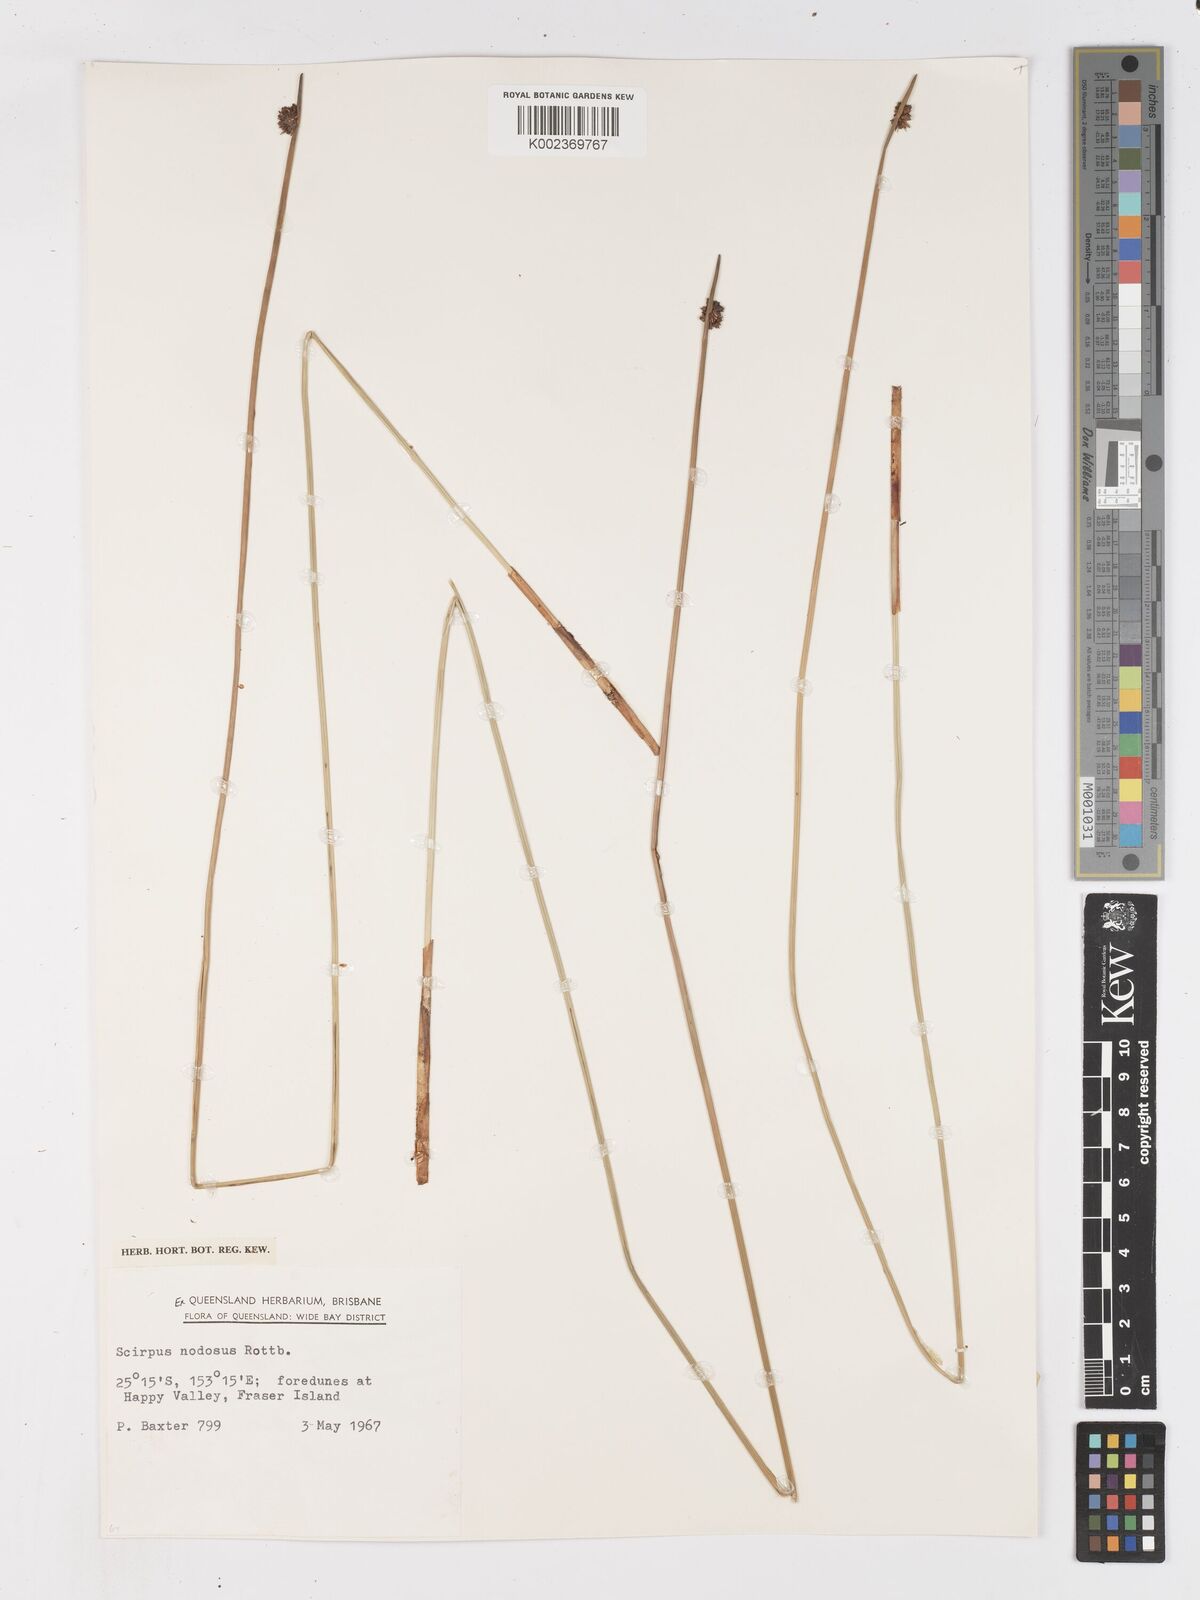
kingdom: Plantae
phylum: Tracheophyta
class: Liliopsida
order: Poales
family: Cyperaceae
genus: Ficinia
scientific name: Ficinia nodosa
